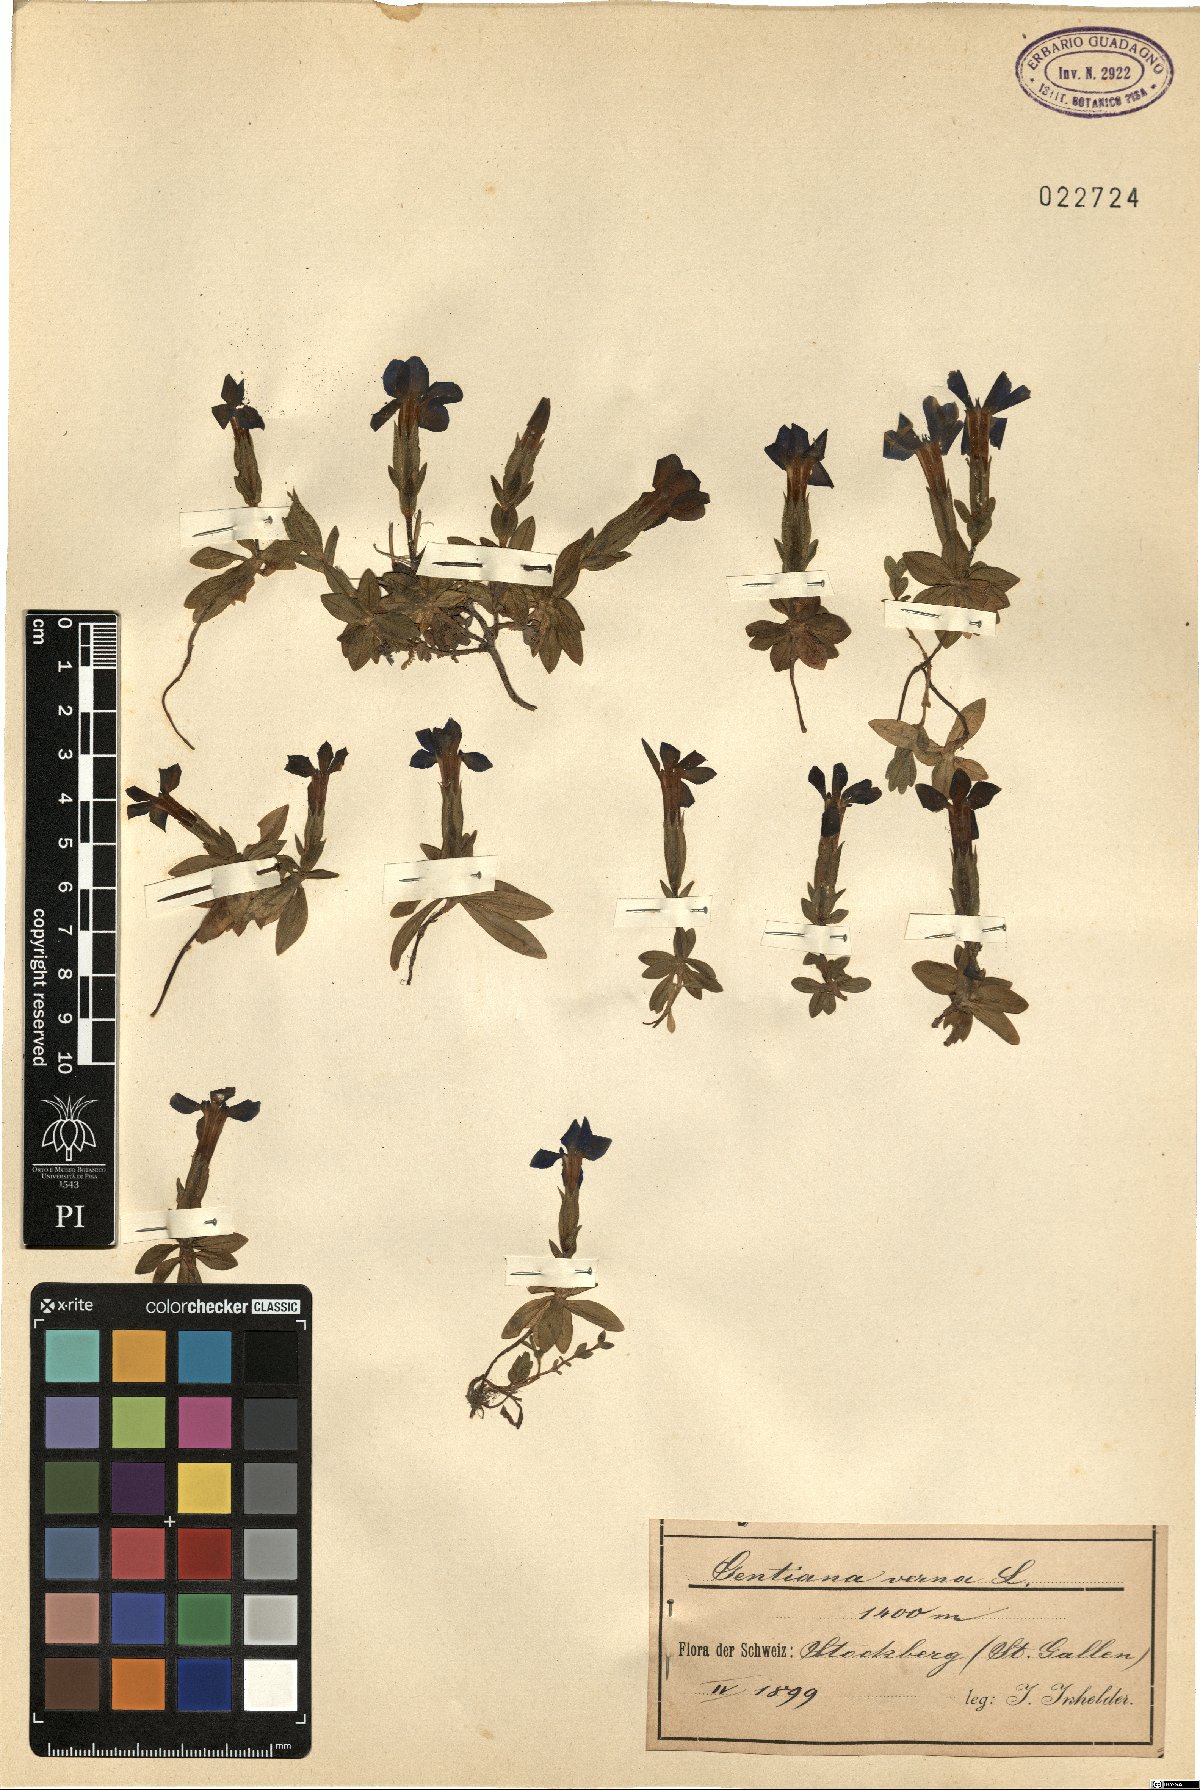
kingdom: Plantae
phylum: Tracheophyta
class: Magnoliopsida
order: Gentianales
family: Gentianaceae
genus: Gentiana
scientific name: Gentiana verna
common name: Spring gentian
